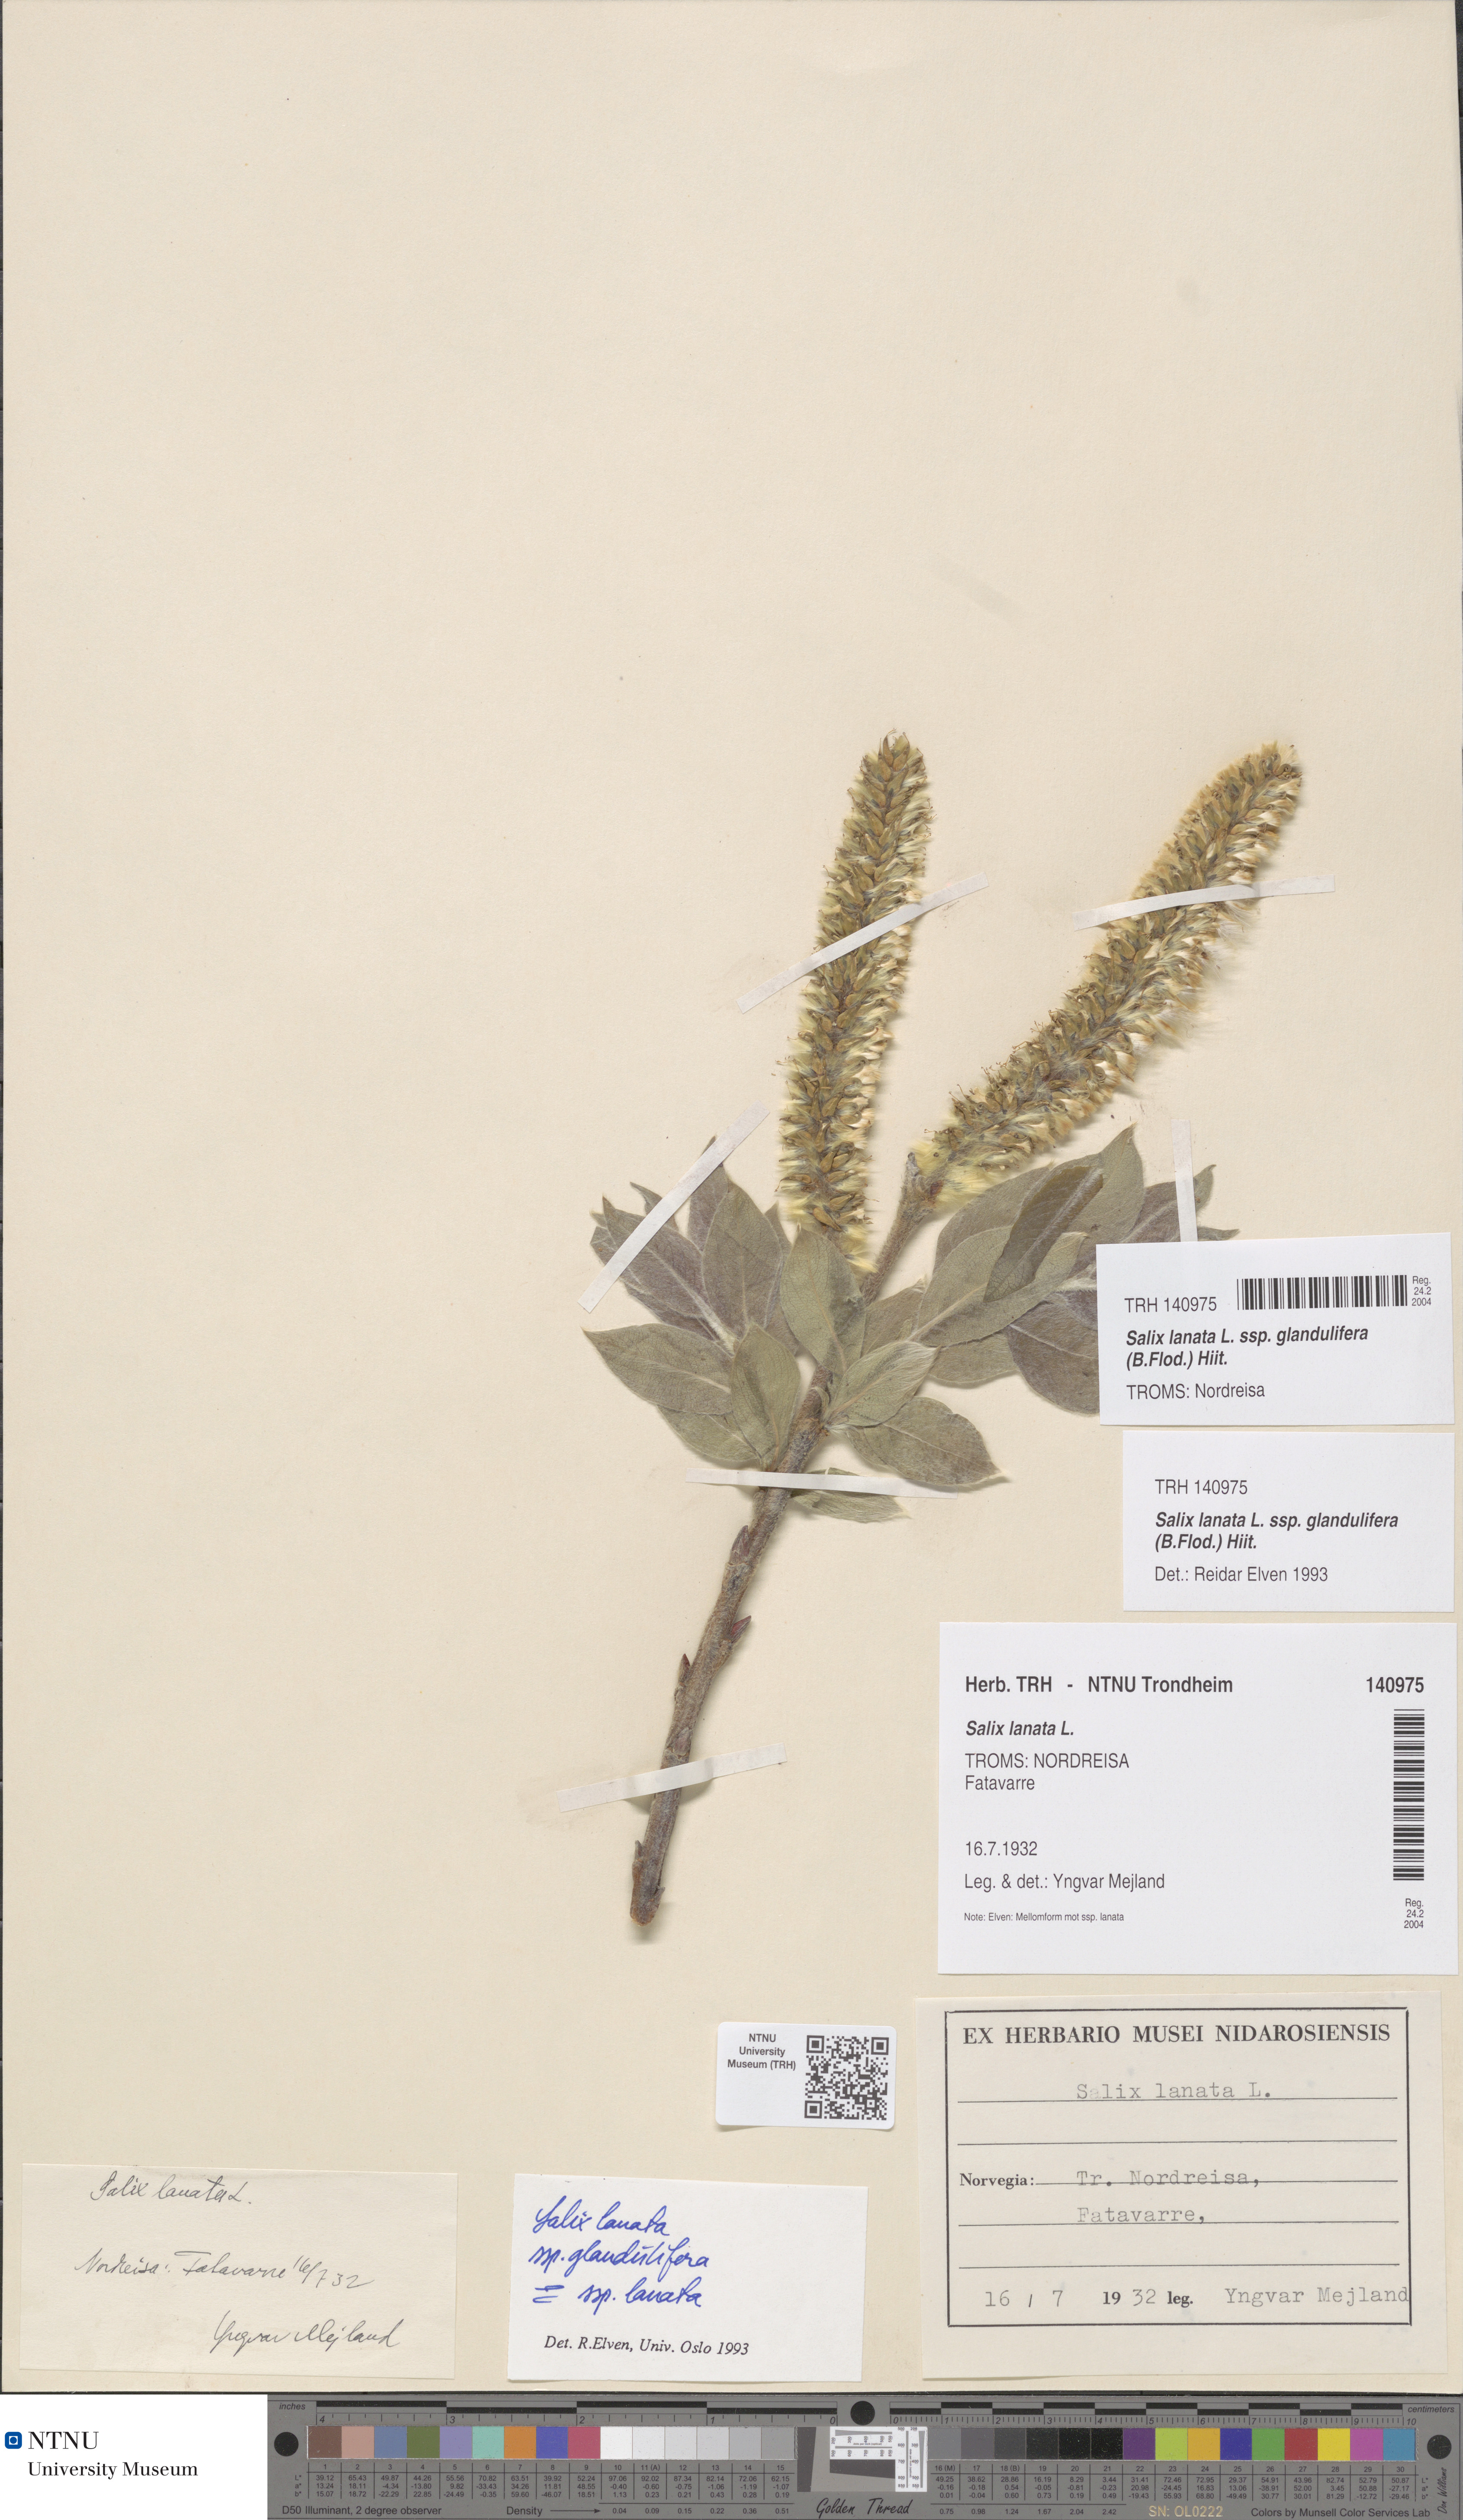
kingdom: Plantae
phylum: Tracheophyta
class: Magnoliopsida
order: Malpighiales
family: Salicaceae
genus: Salix
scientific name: Salix lanata
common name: Woolly willow
